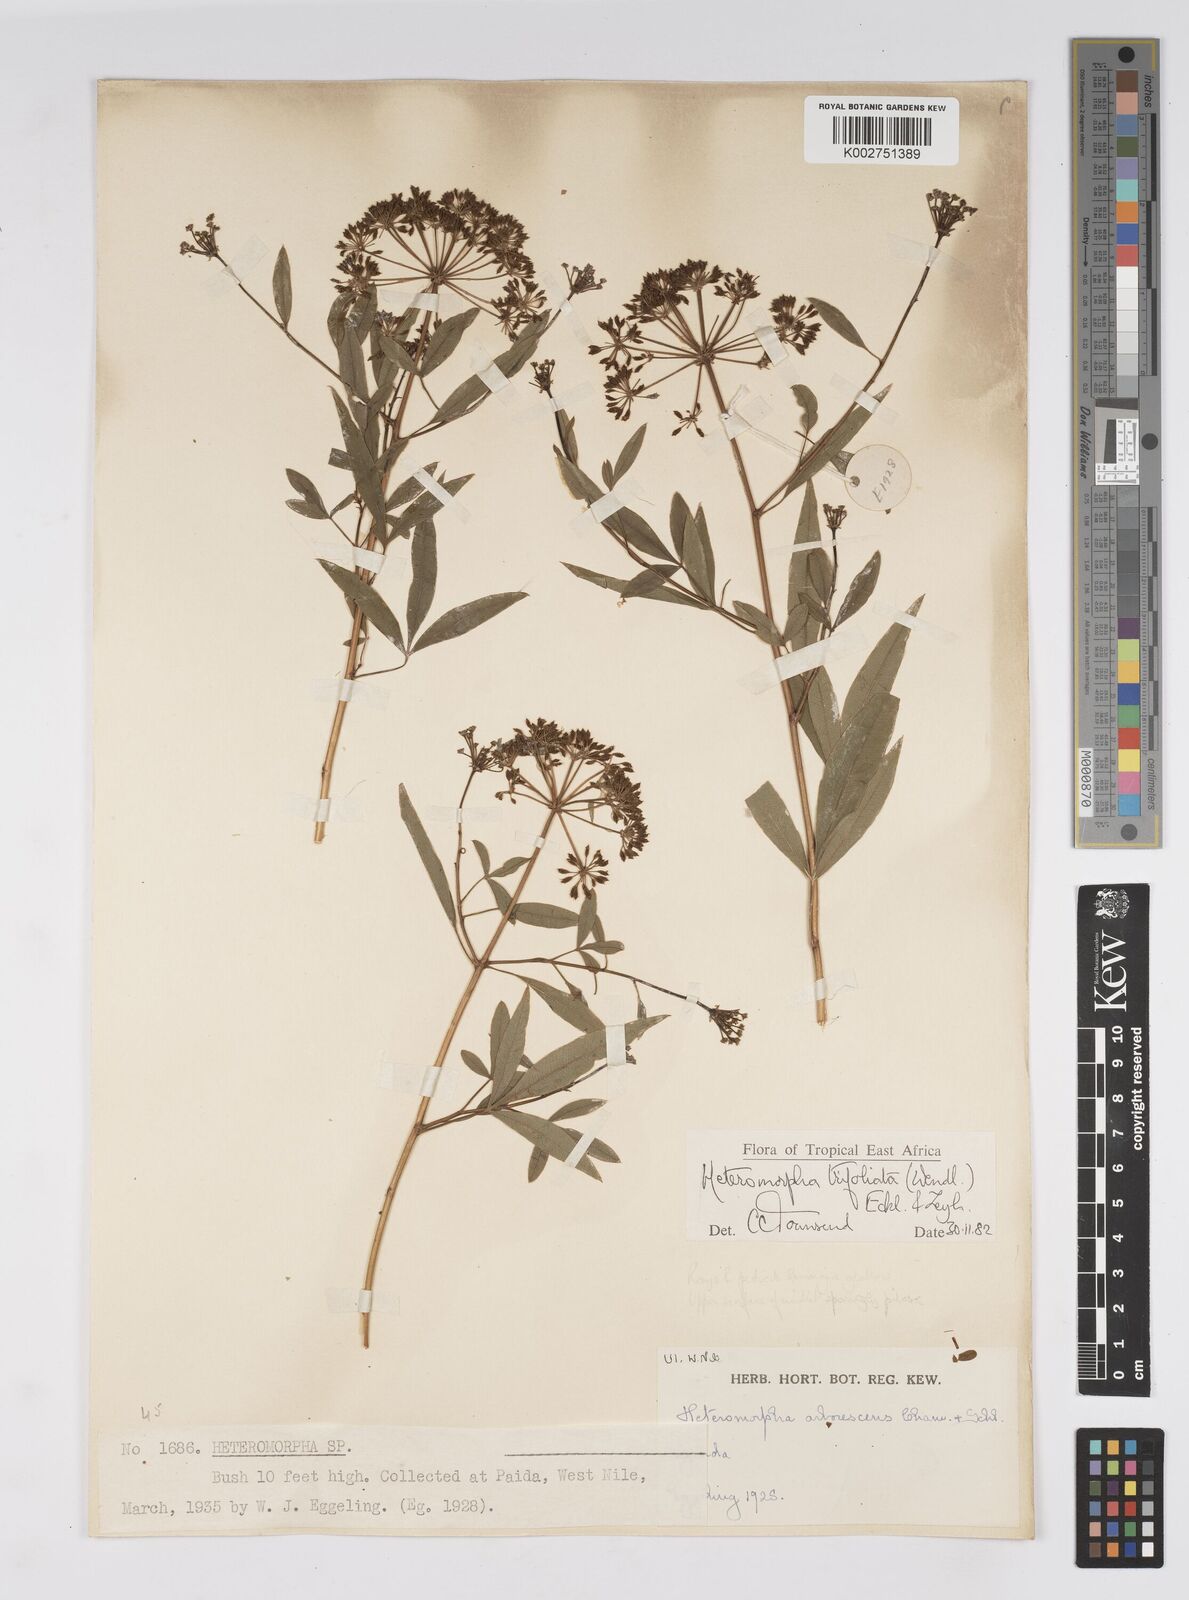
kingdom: Plantae
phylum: Tracheophyta
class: Magnoliopsida
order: Apiales
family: Apiaceae
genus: Heteromorpha
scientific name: Heteromorpha arborescens
